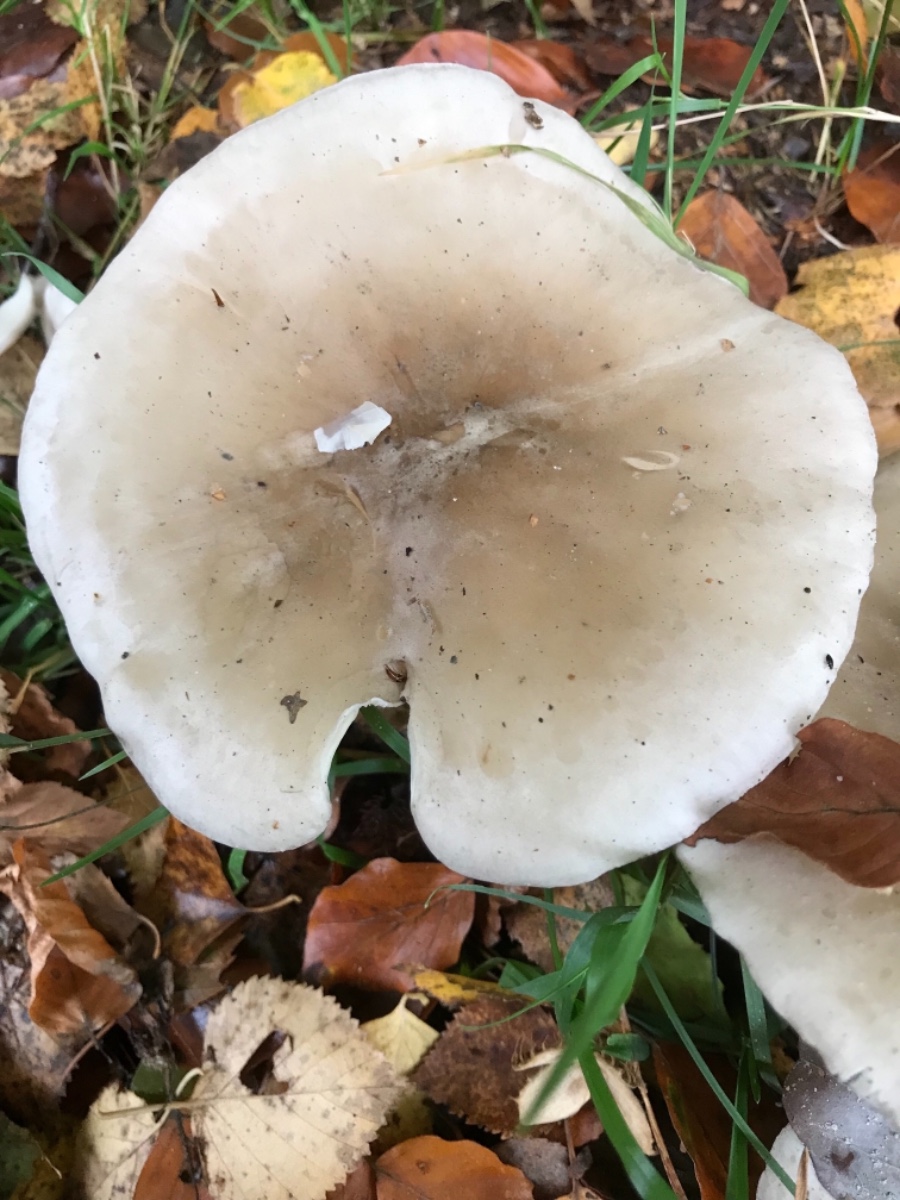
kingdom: Fungi
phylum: Basidiomycota
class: Agaricomycetes
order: Agaricales
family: Tricholomataceae
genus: Clitocybe
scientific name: Clitocybe nebularis
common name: tåge-tragthat
